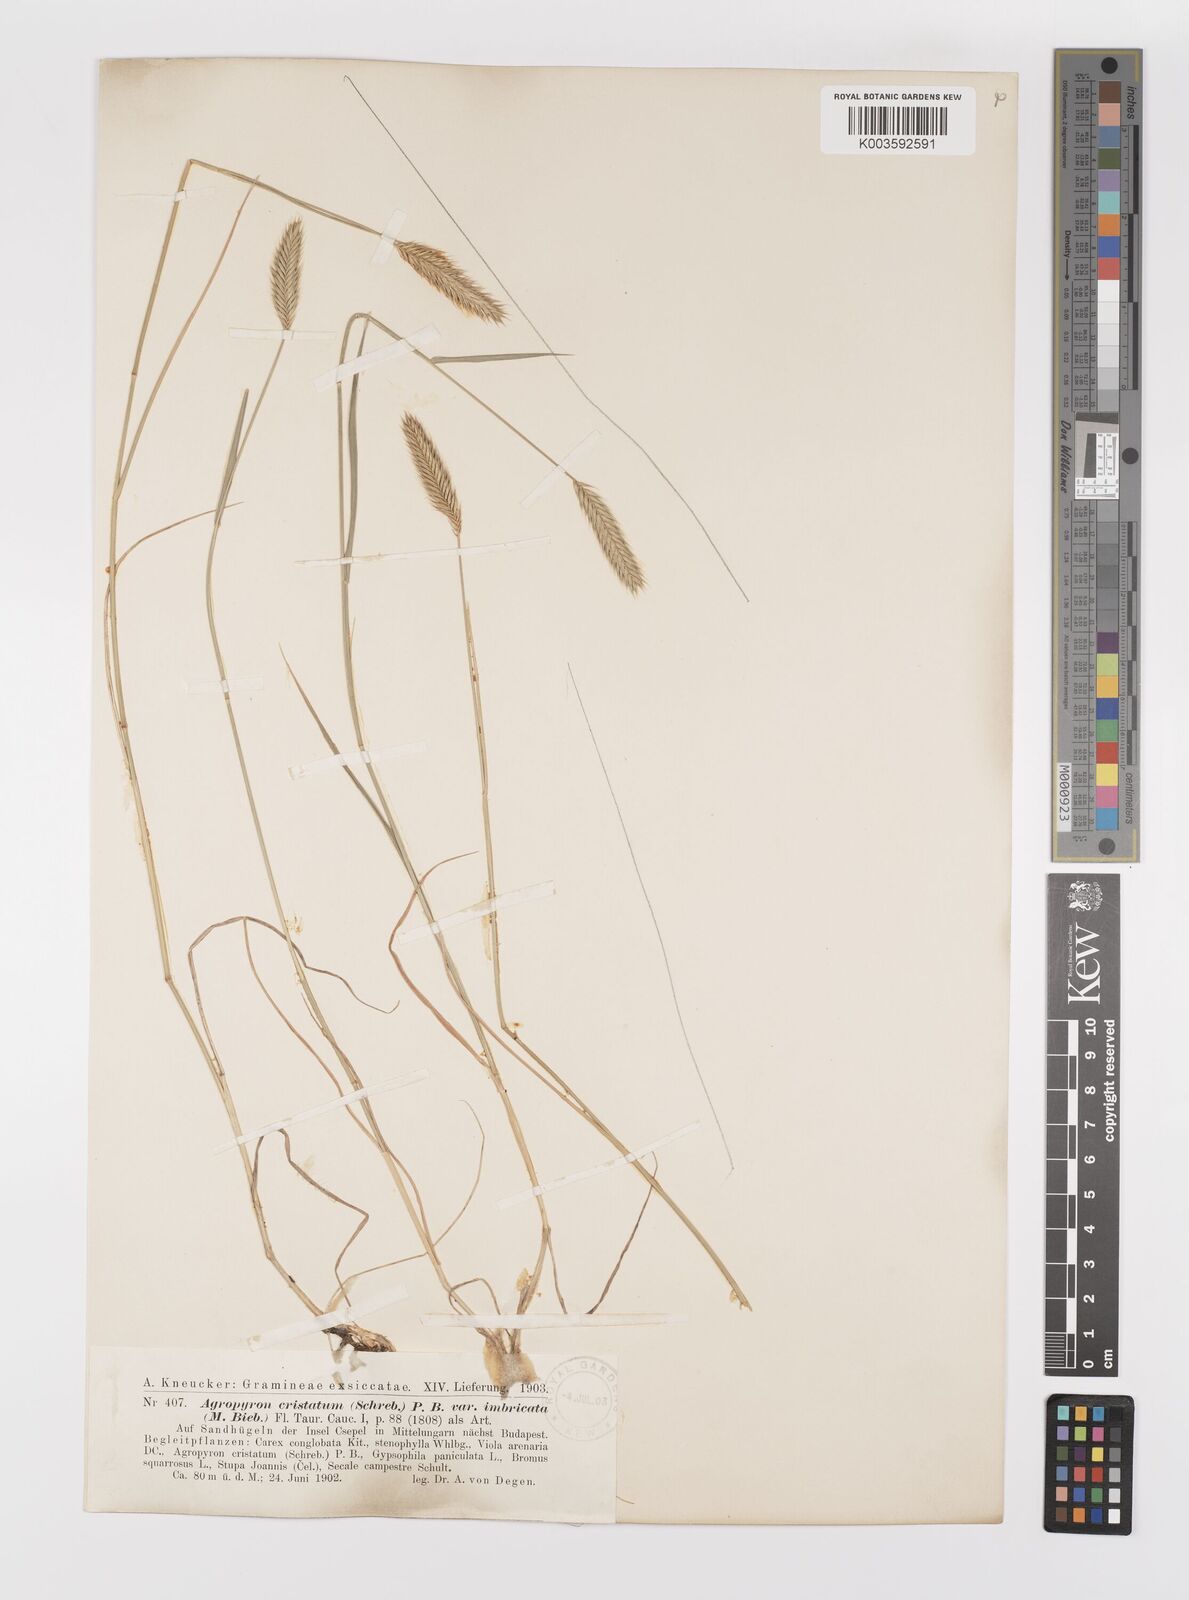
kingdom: Plantae
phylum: Tracheophyta
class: Liliopsida
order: Poales
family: Poaceae
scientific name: Poaceae
